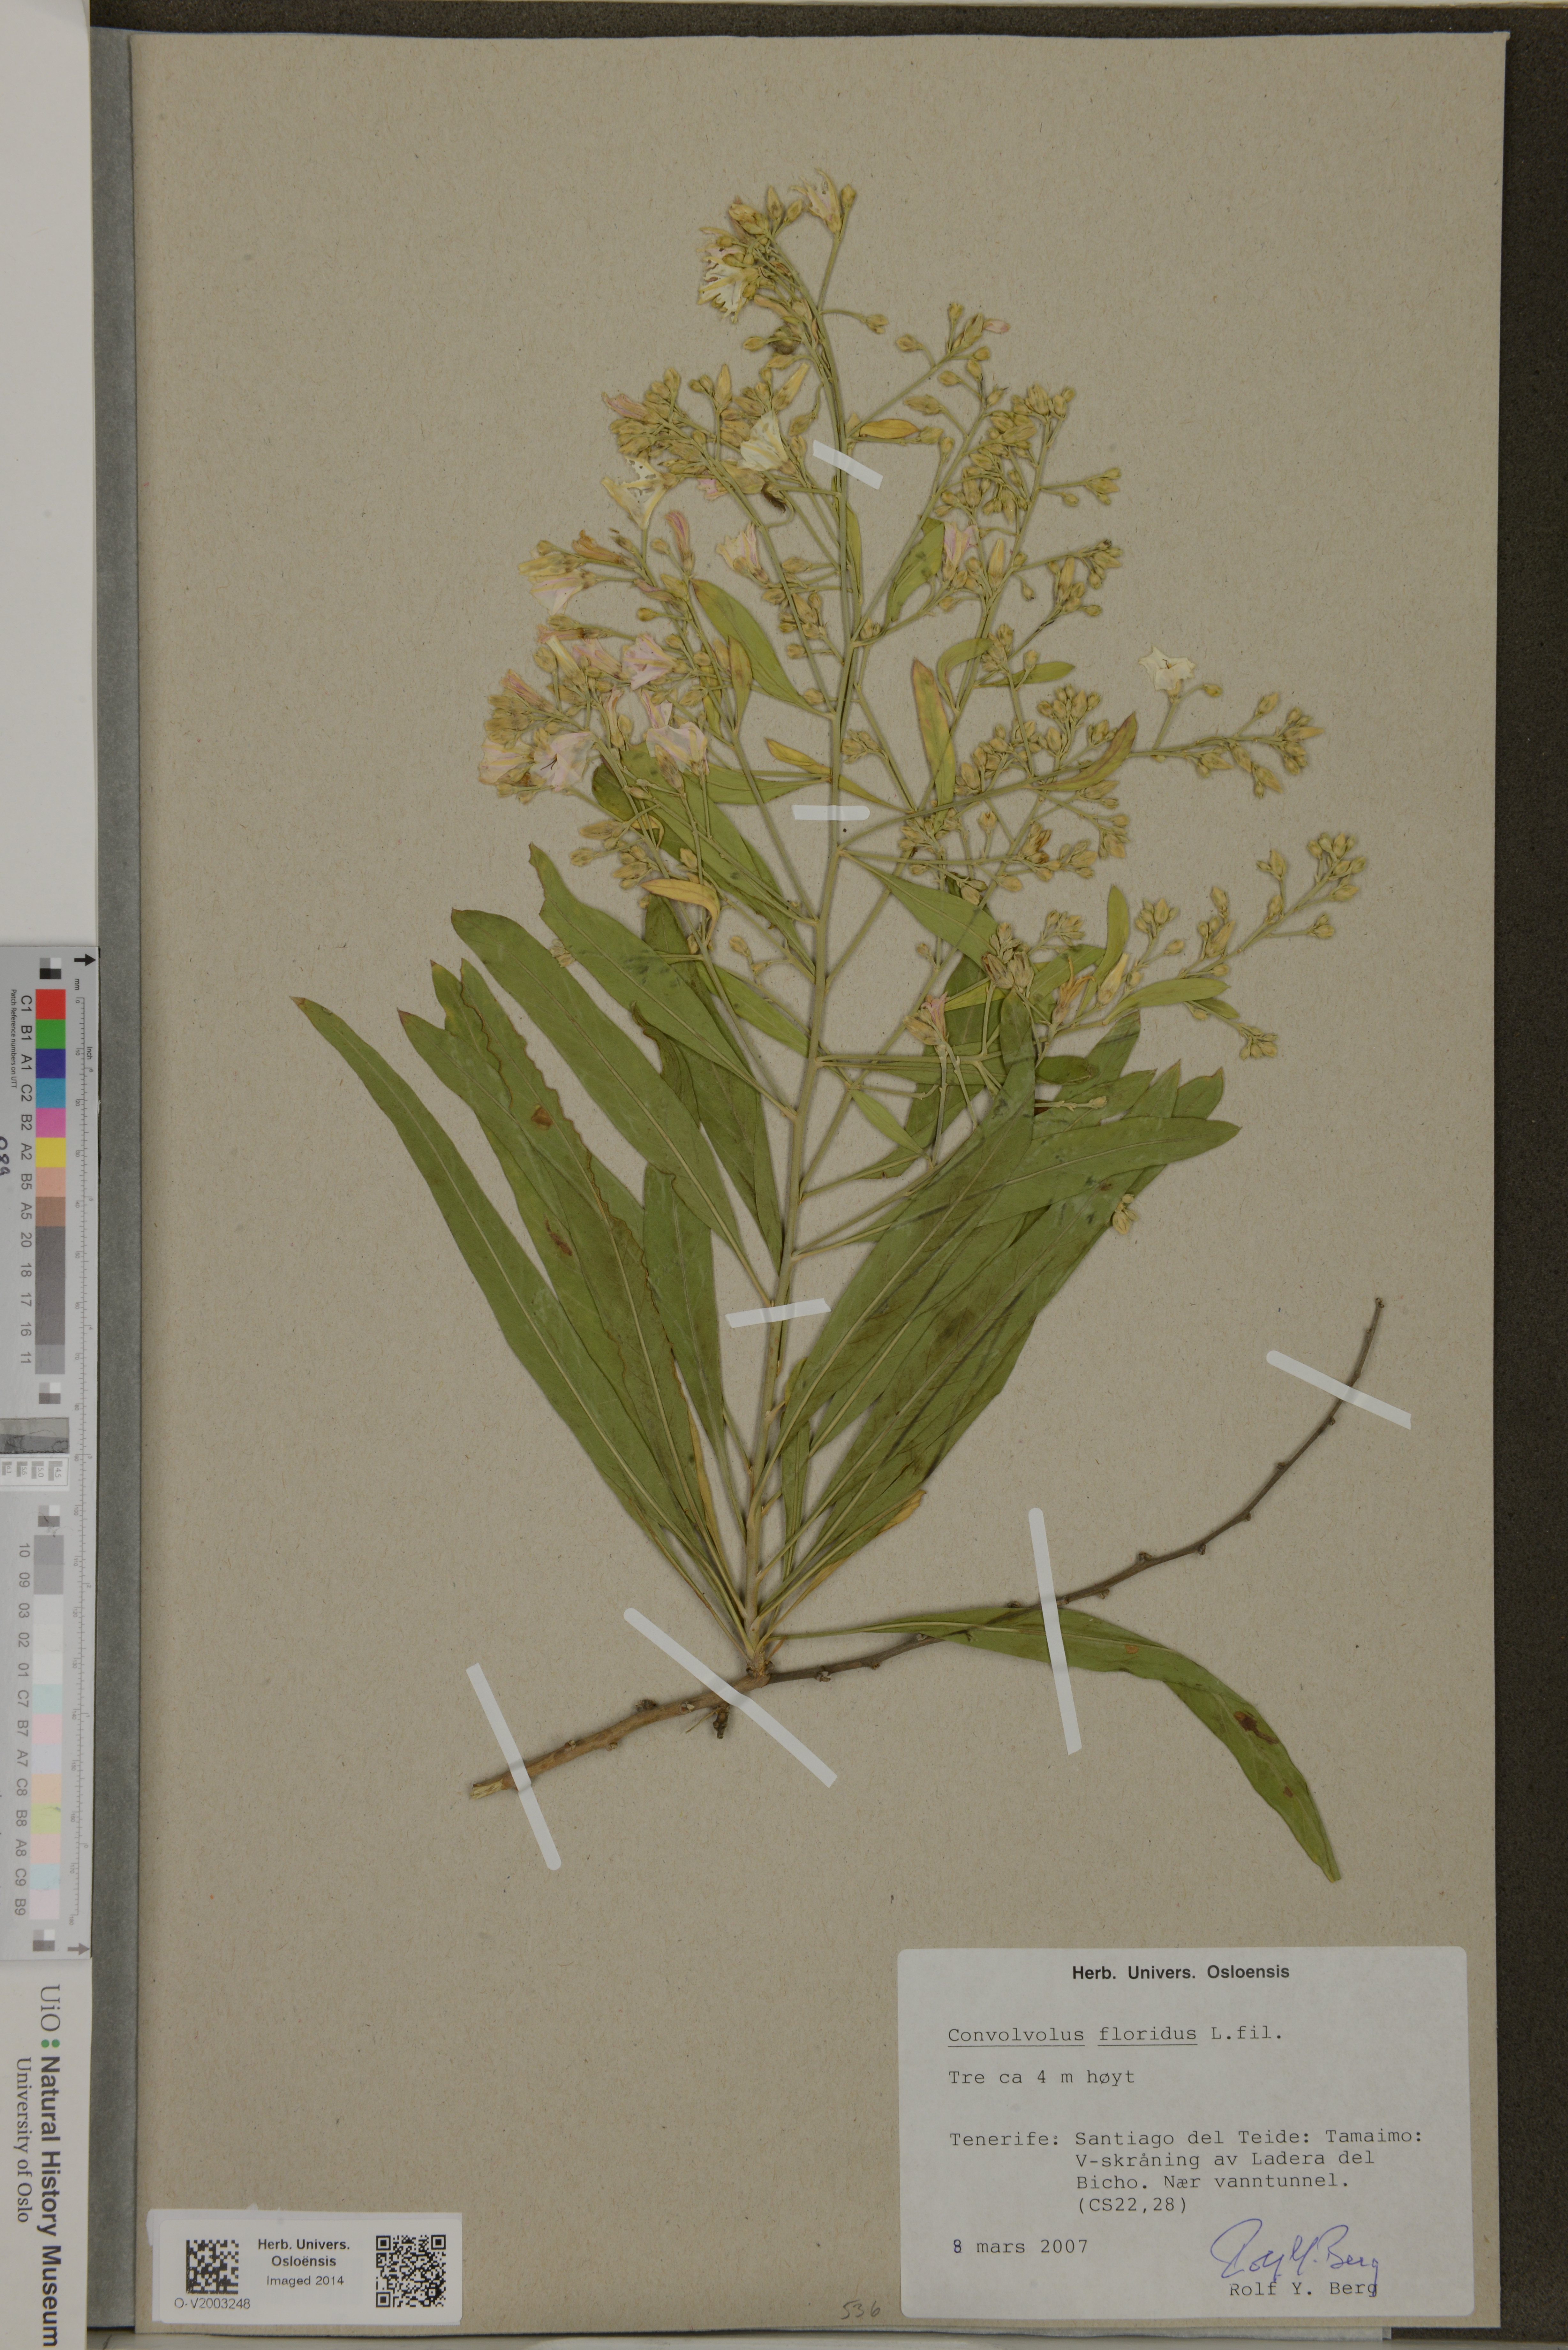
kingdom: Plantae
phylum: Tracheophyta
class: Magnoliopsida
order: Solanales
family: Convolvulaceae
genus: Convolvulus
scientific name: Convolvulus floridus
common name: Guadil
